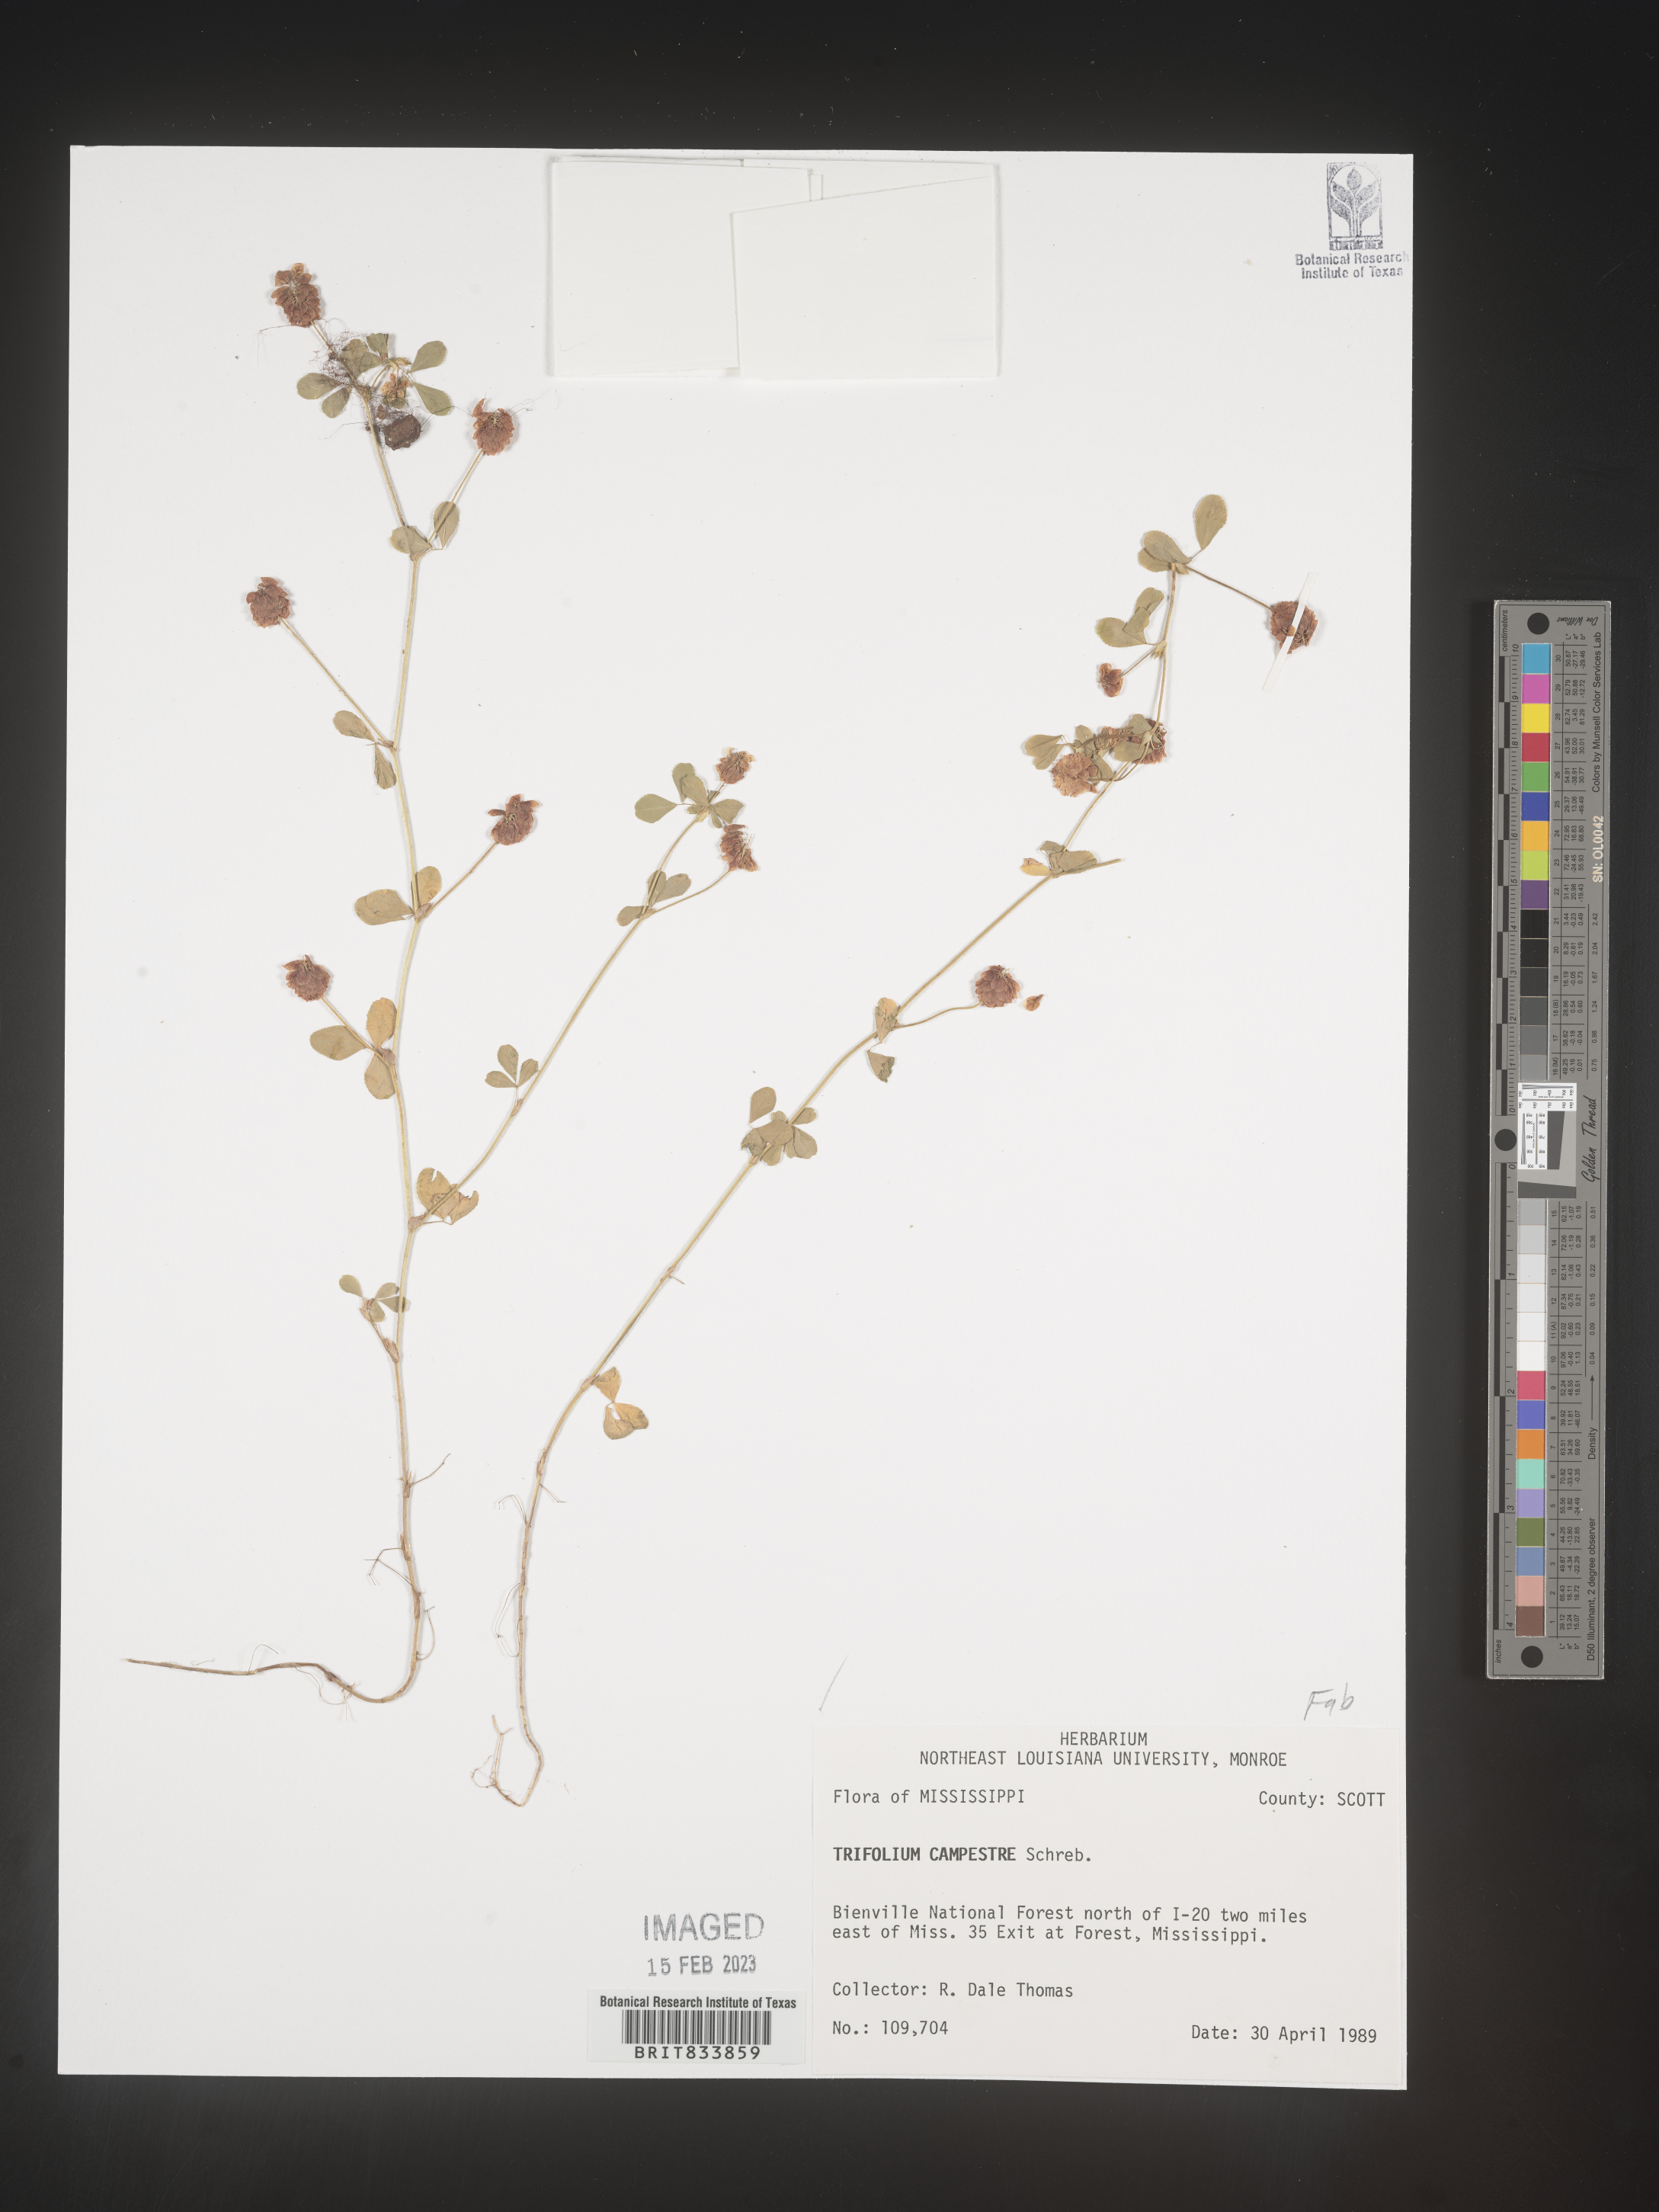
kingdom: Plantae
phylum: Tracheophyta
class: Magnoliopsida
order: Fabales
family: Fabaceae
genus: Trifolium
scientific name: Trifolium campestre
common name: Field clover
